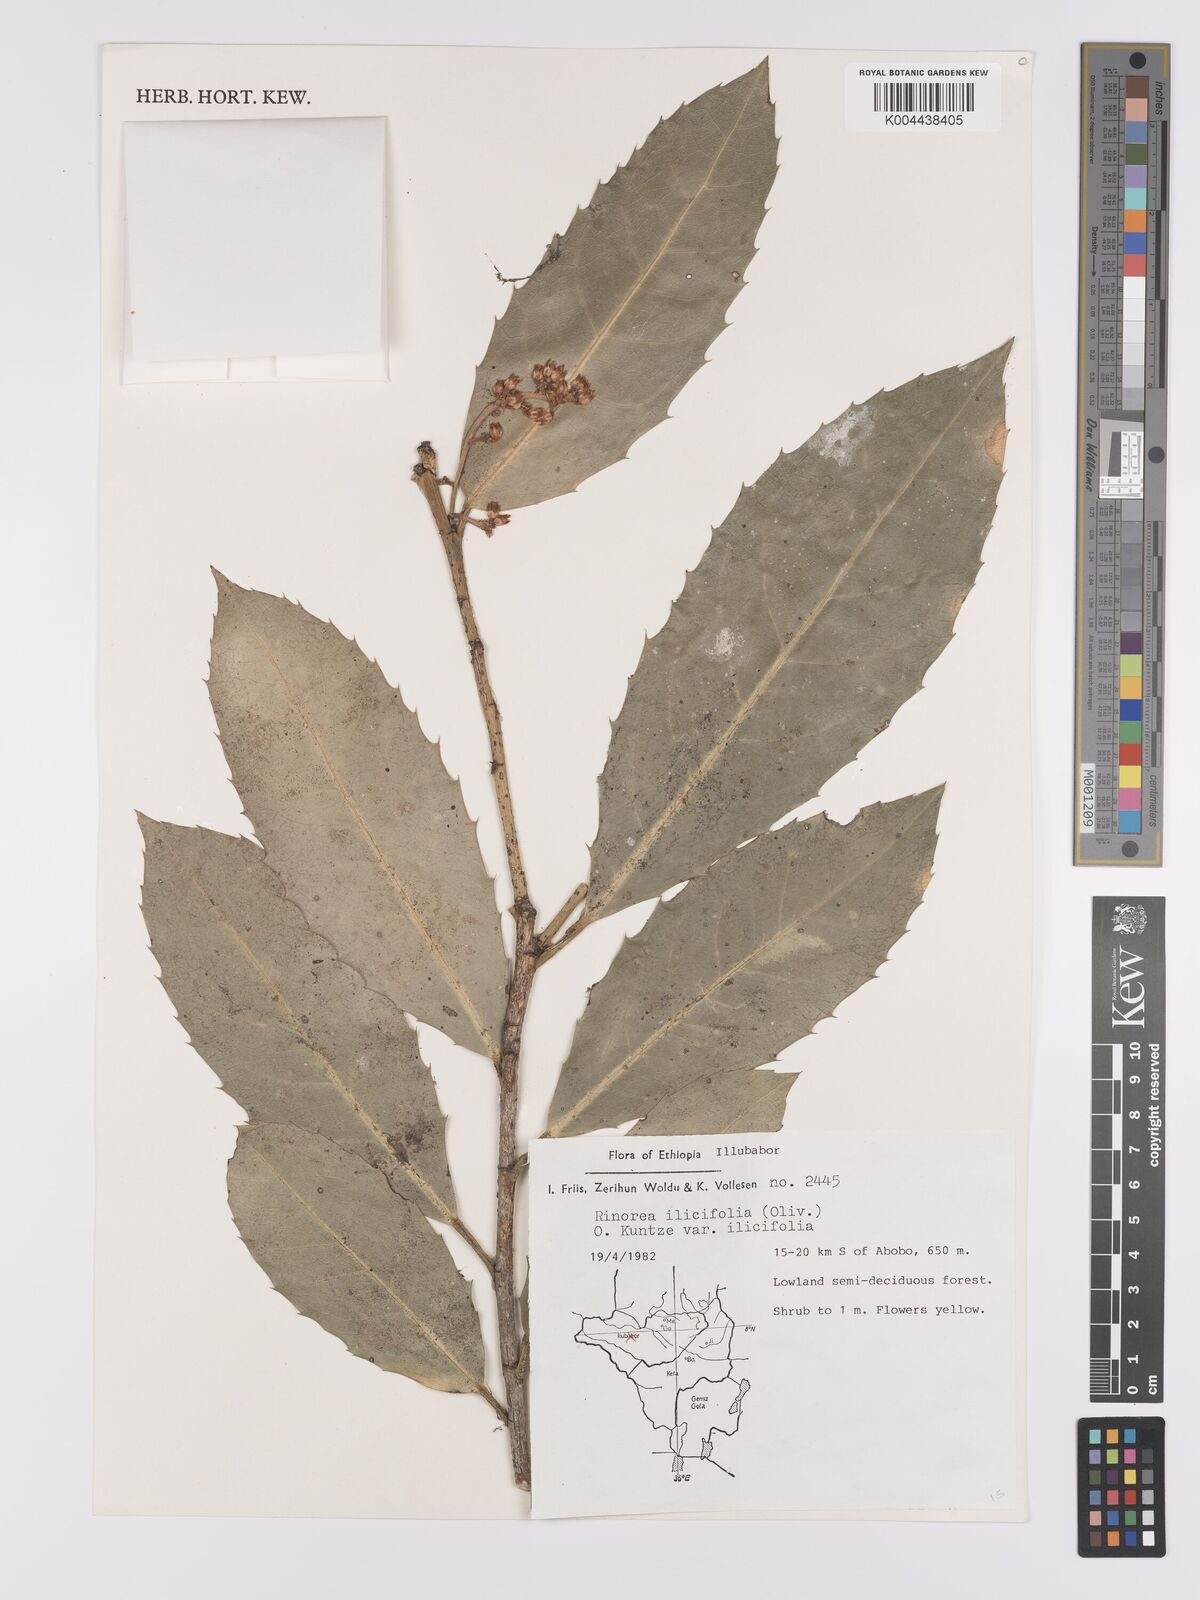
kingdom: Plantae
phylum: Tracheophyta
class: Magnoliopsida
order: Malpighiales
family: Violaceae
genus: Rinorea
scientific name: Rinorea ilicifolia
